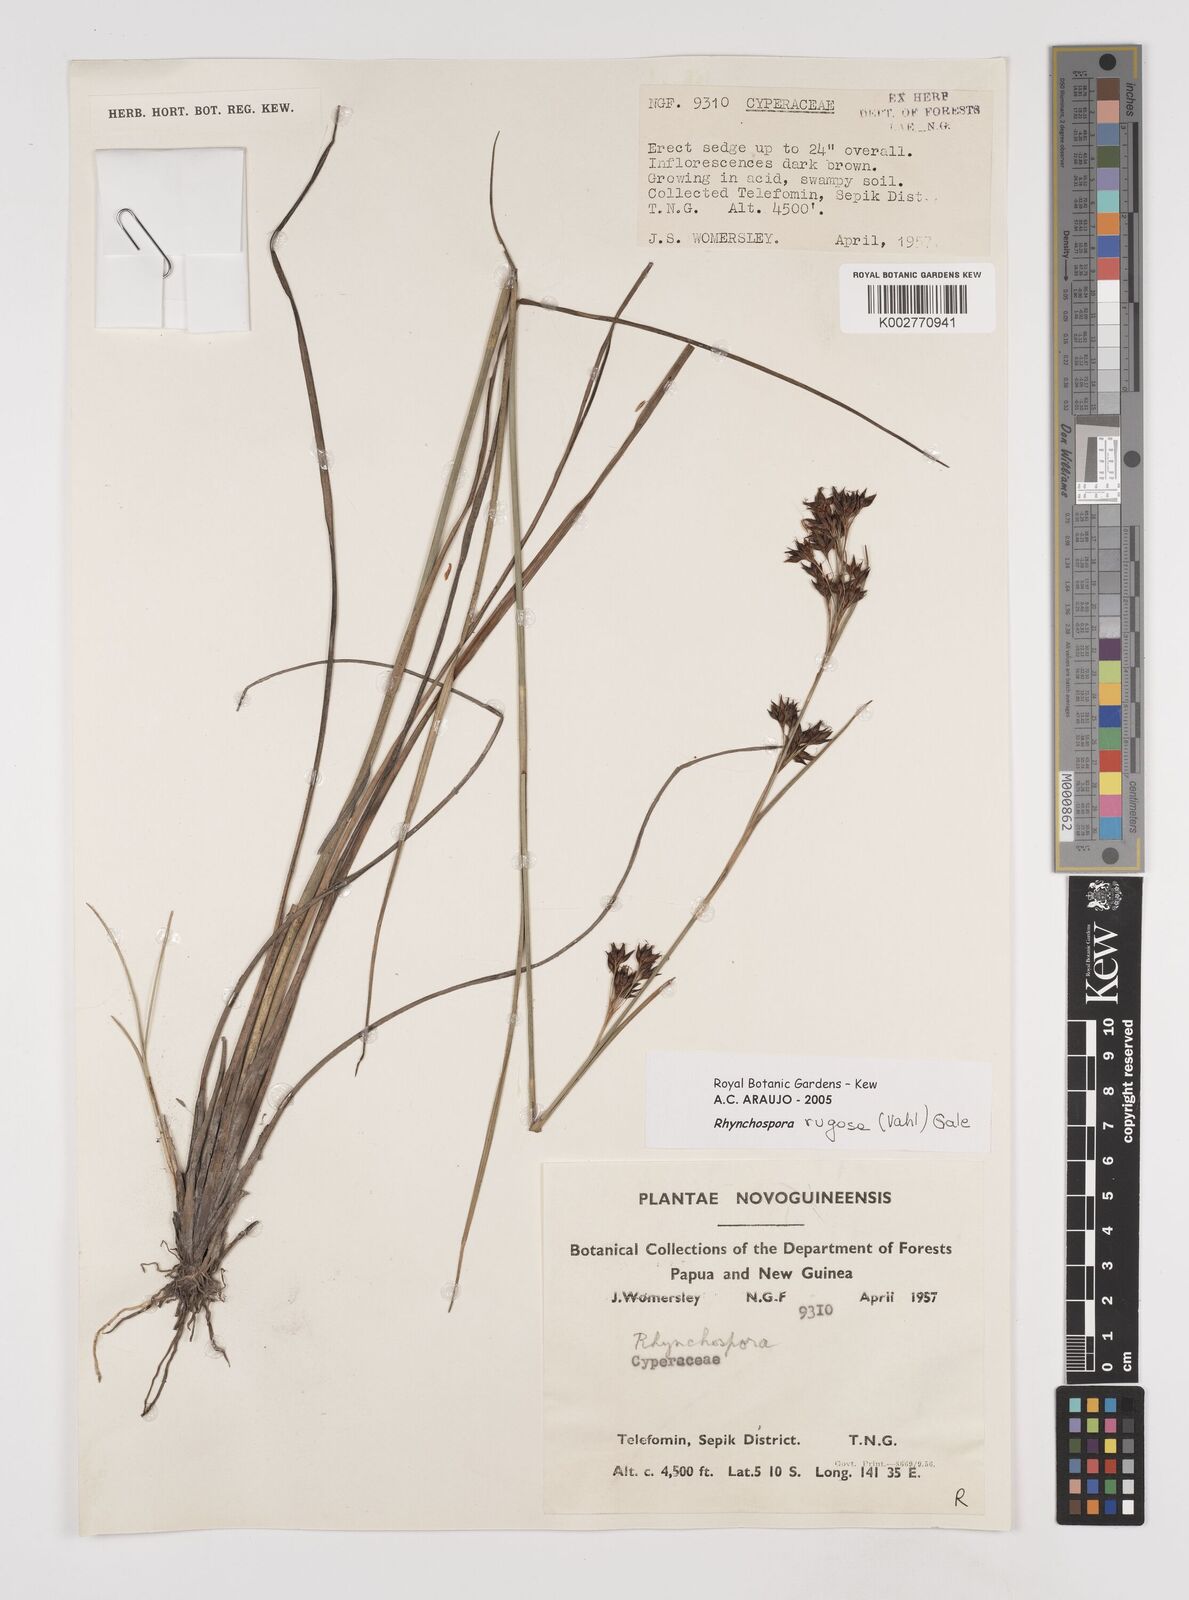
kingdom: Plantae
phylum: Tracheophyta
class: Liliopsida
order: Poales
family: Cyperaceae
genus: Rhynchospora
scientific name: Rhynchospora rugosa
